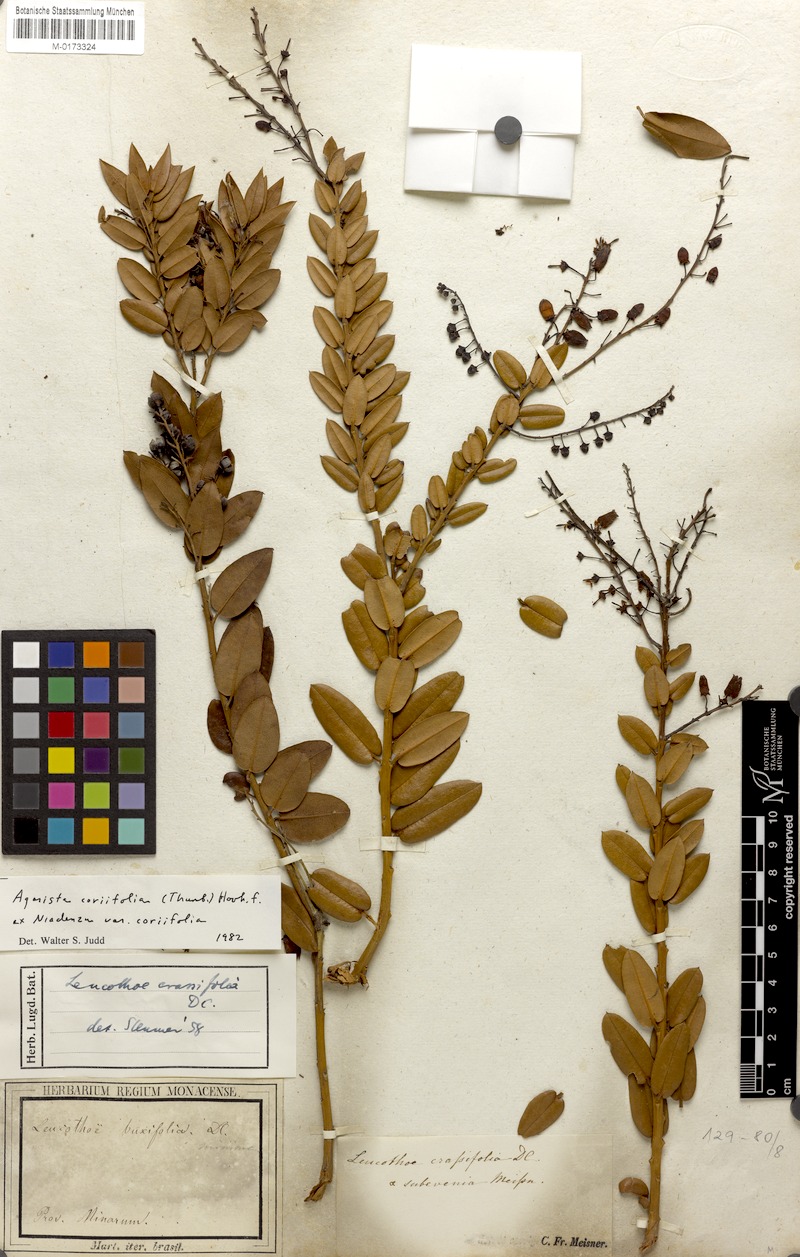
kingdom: Plantae
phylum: Tracheophyta
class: Magnoliopsida
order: Ericales
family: Ericaceae
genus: Agarista
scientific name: Agarista coriifolia
